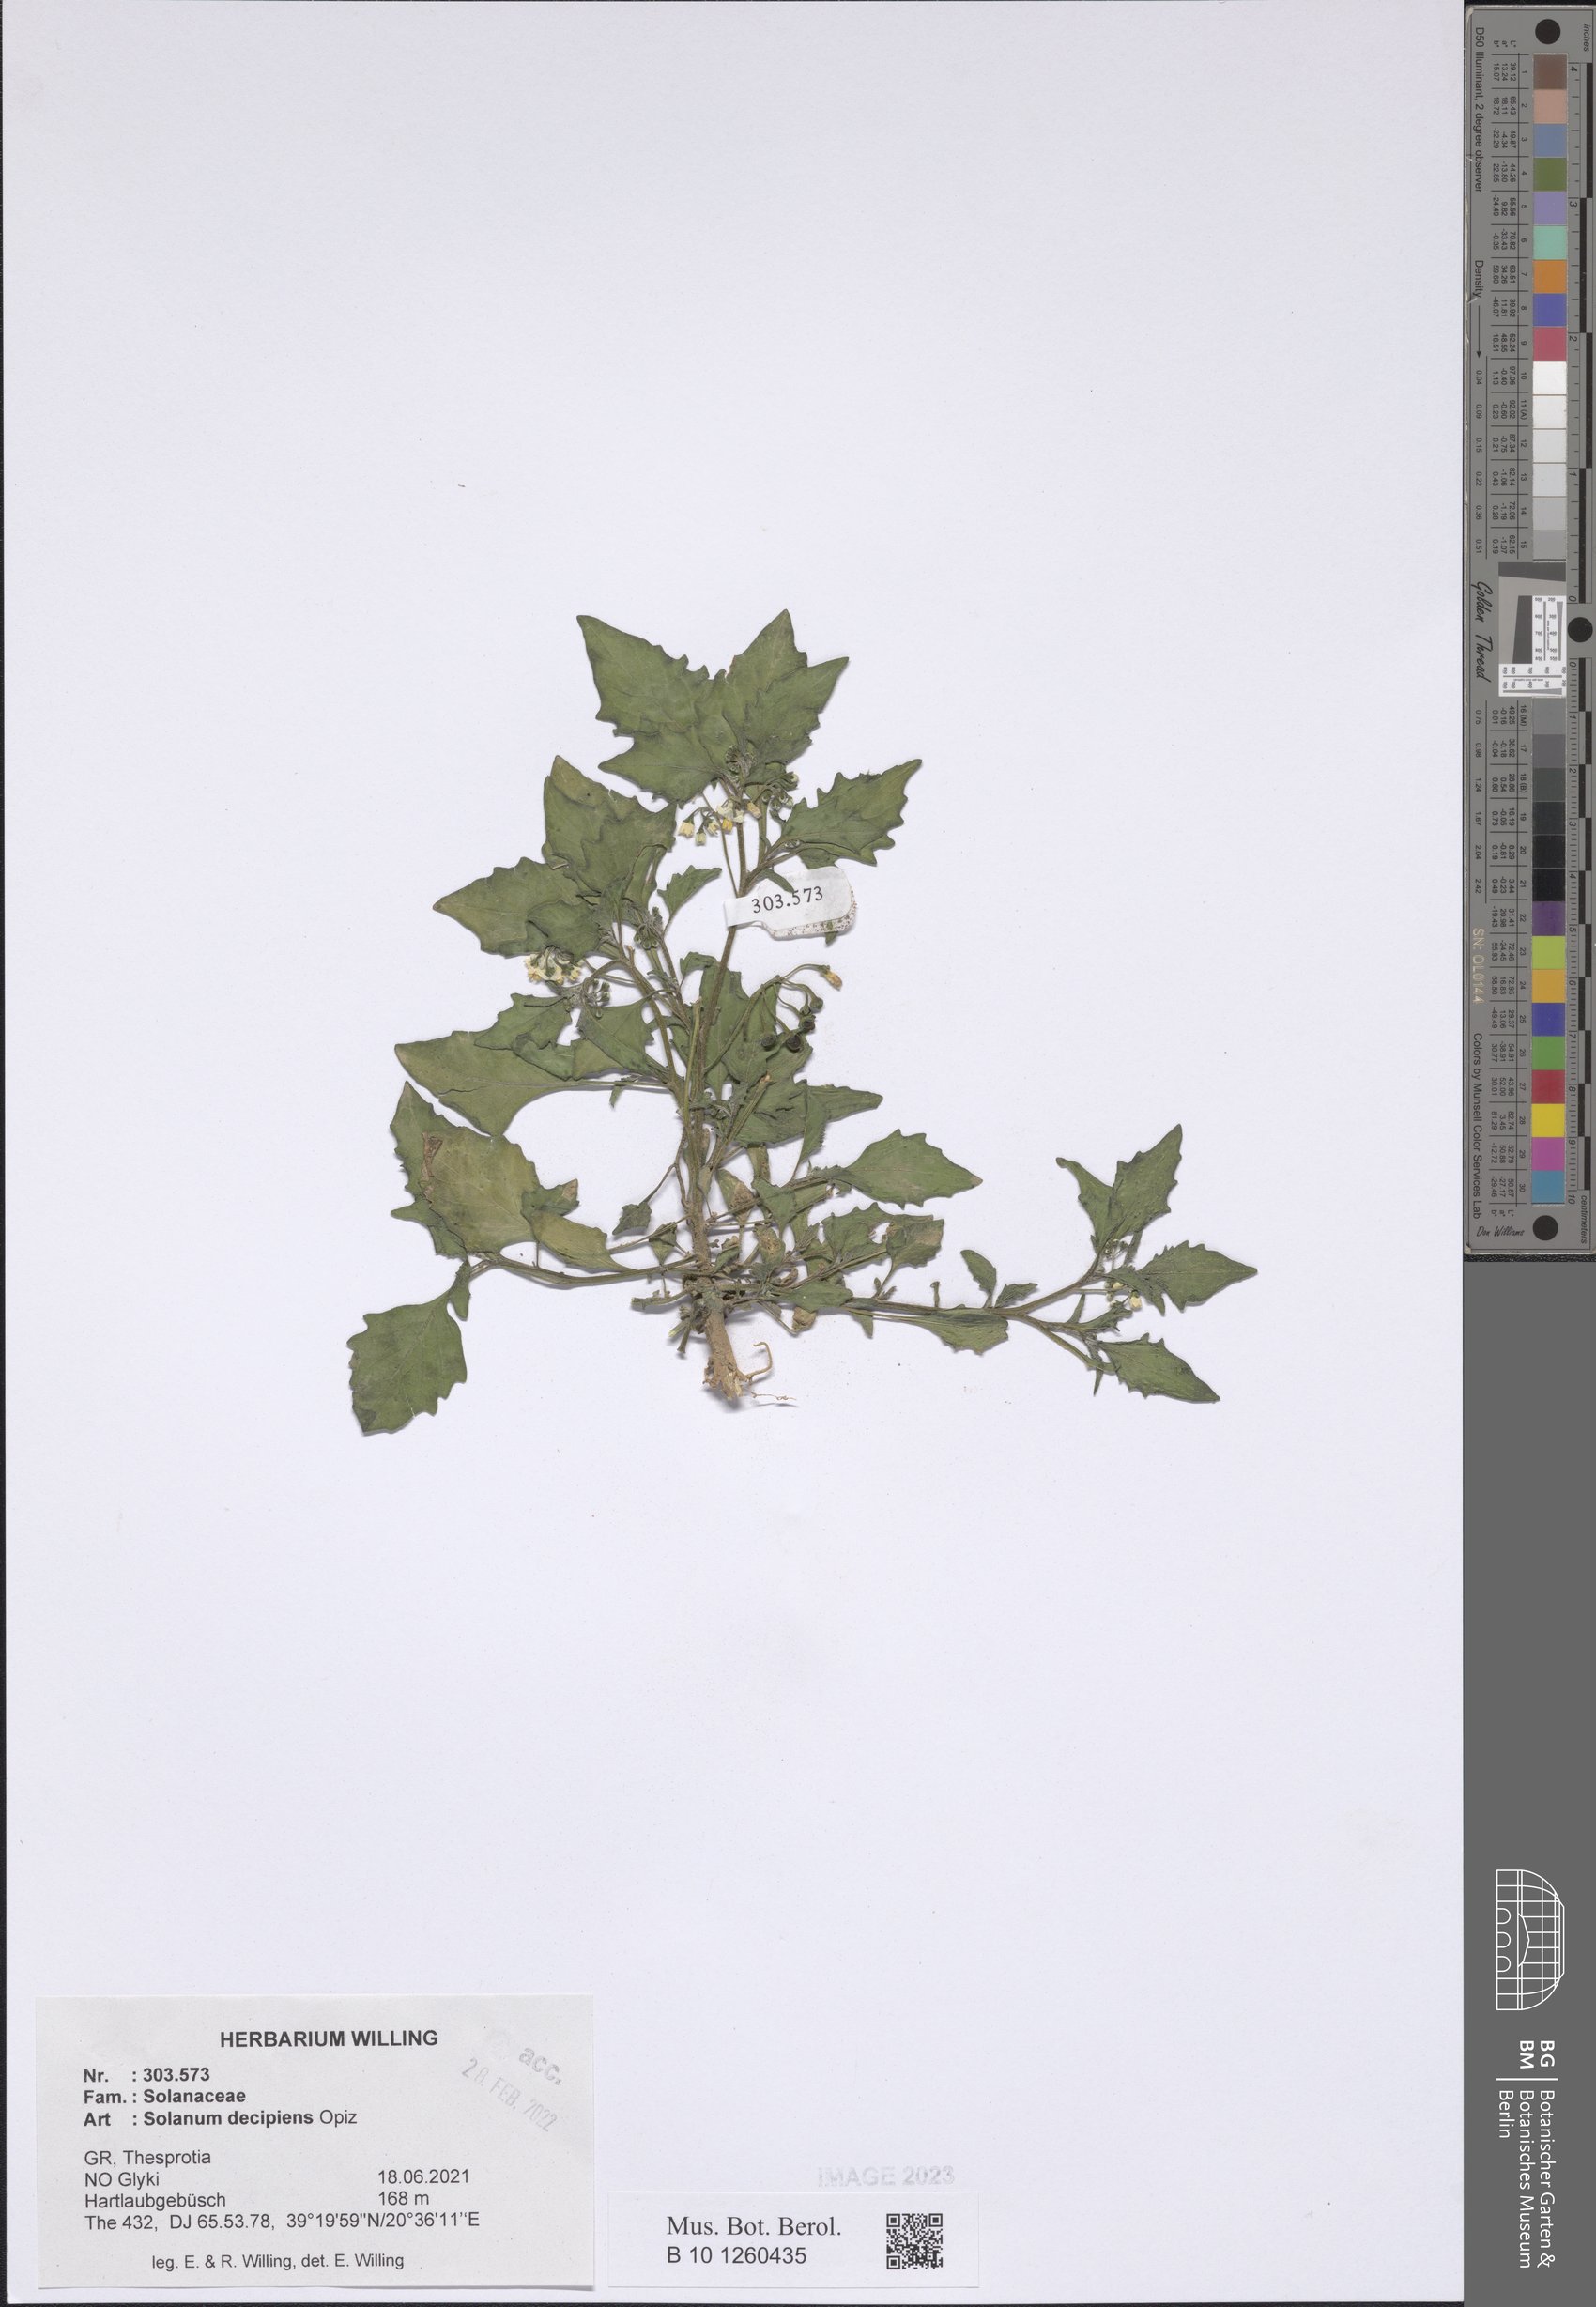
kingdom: Plantae
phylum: Tracheophyta
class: Magnoliopsida
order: Solanales
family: Solanaceae
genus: Solanum
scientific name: Solanum decipiens
